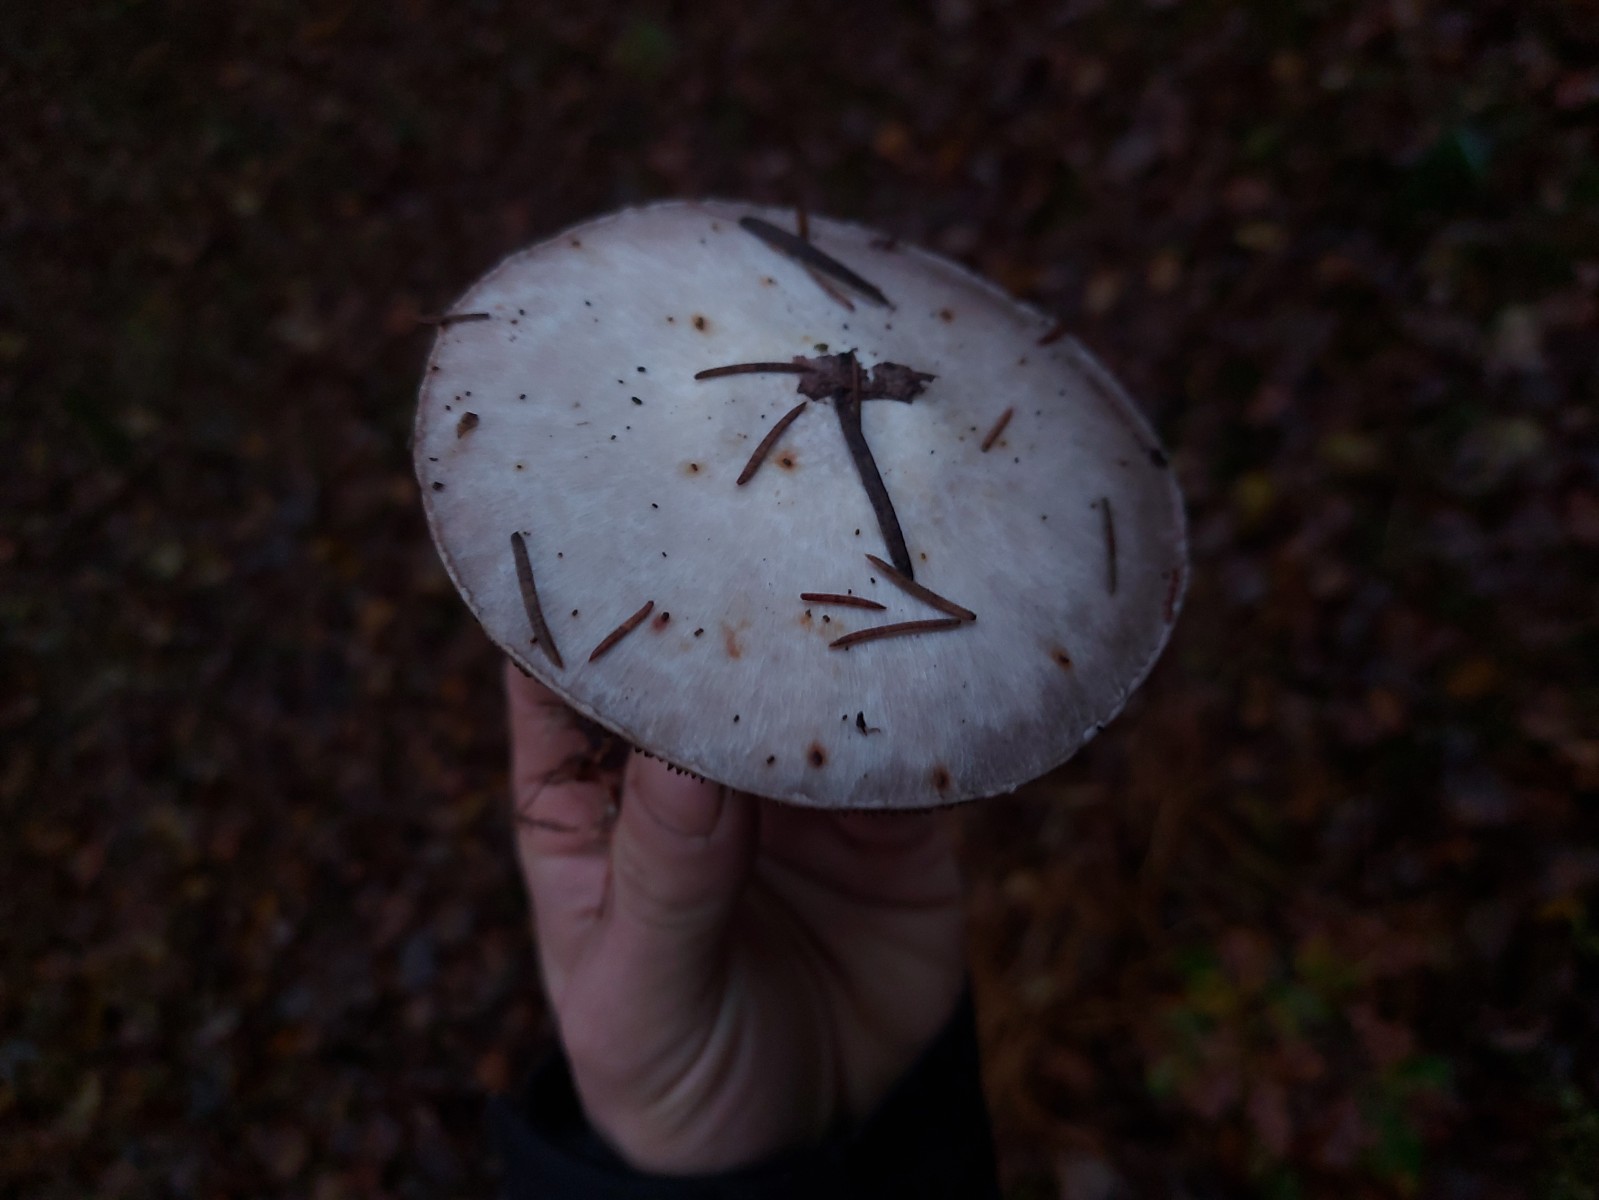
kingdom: Fungi
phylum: Basidiomycota
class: Agaricomycetes
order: Agaricales
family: Agaricaceae
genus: Agaricus
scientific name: Agaricus sylvicola
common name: skiveknoldet champignon
